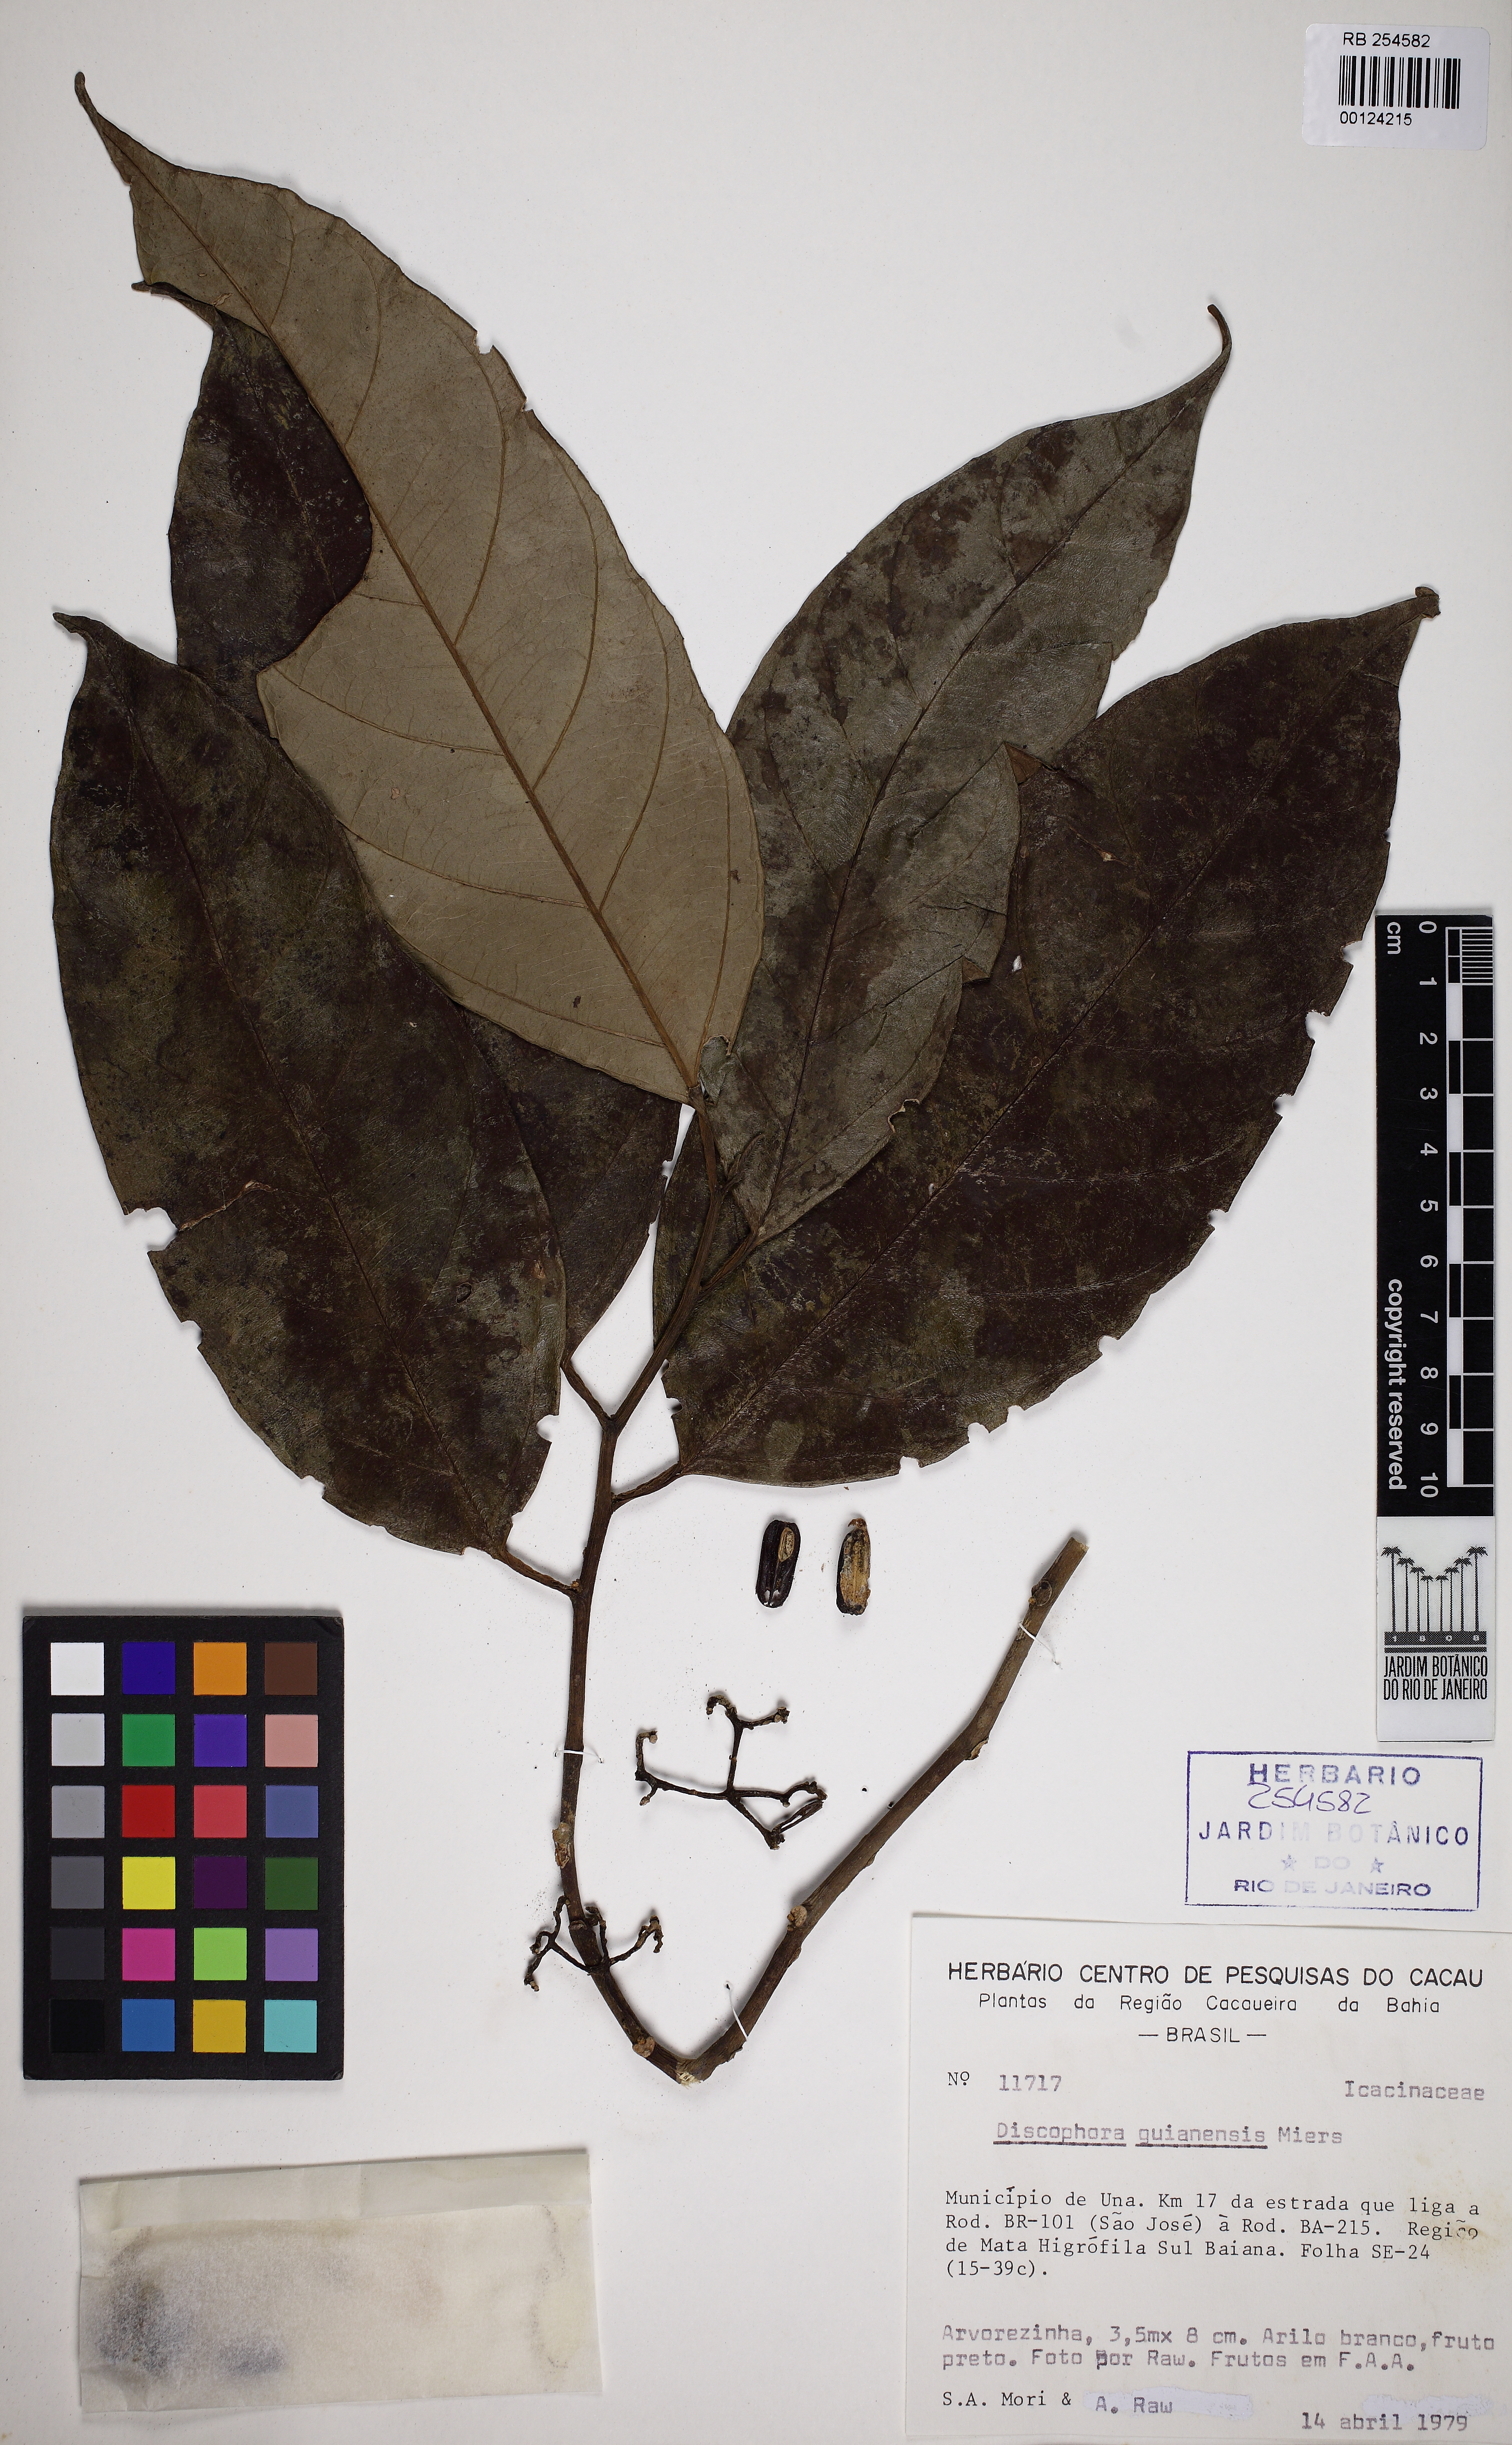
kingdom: Plantae
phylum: Tracheophyta
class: Magnoliopsida
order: Cardiopteridales
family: Stemonuraceae
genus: Discophora
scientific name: Discophora guianensis
